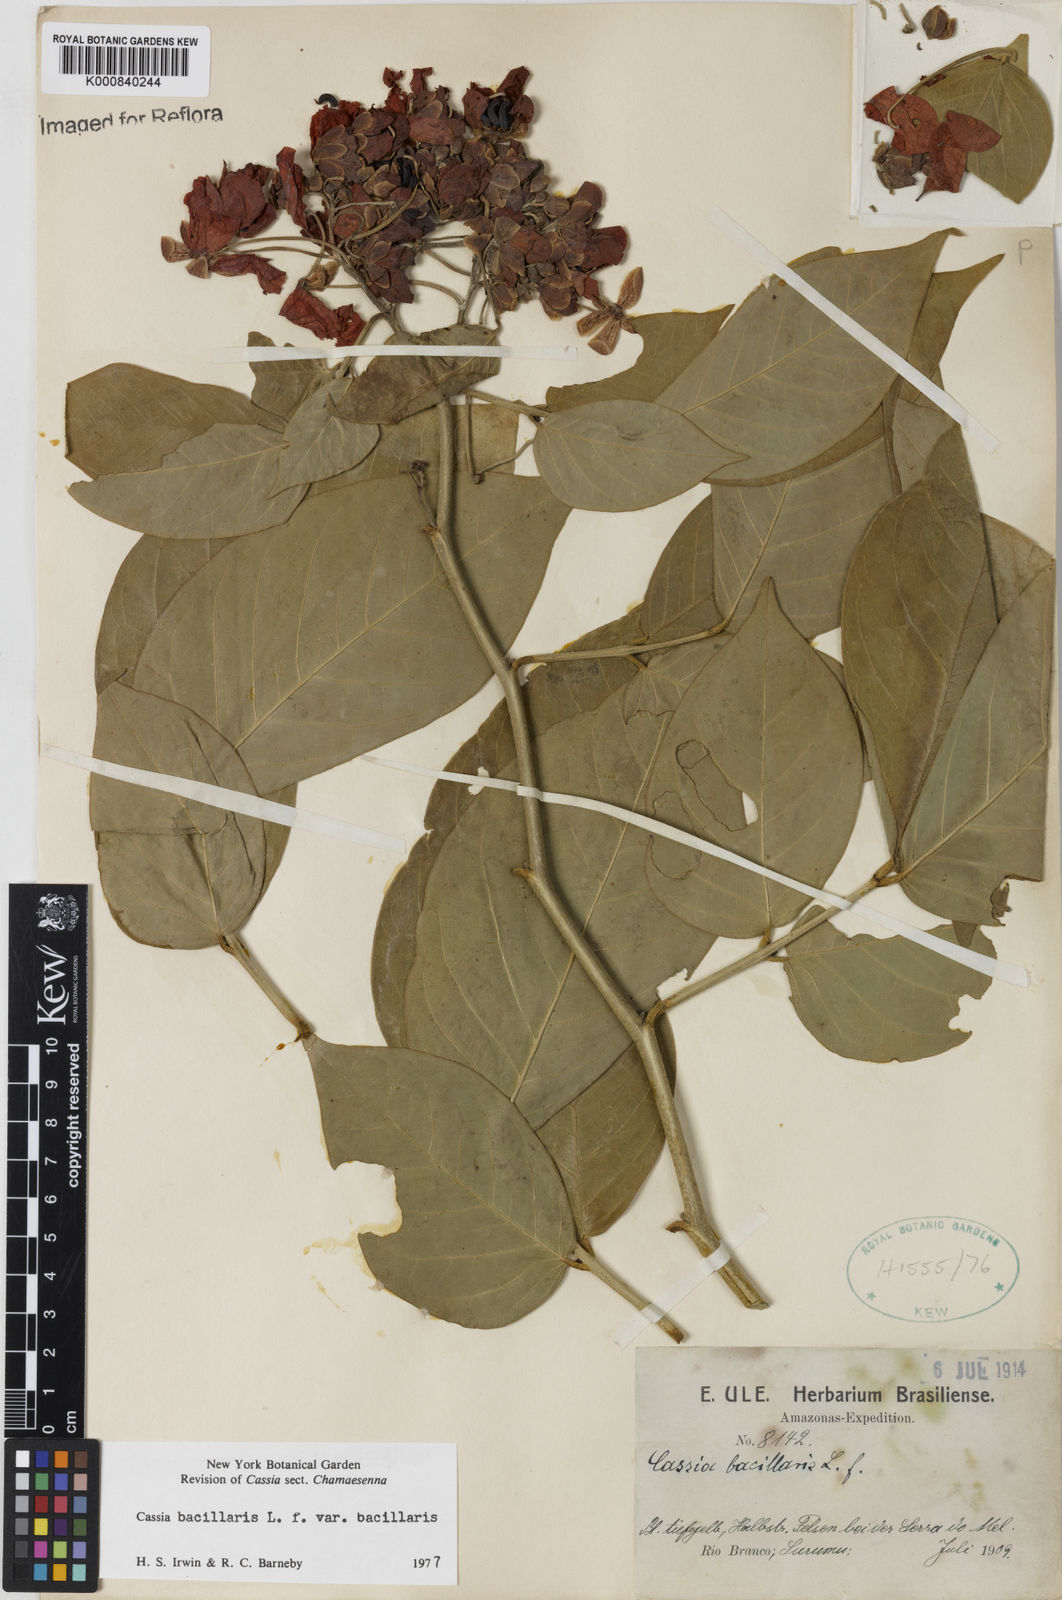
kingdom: Plantae
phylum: Tracheophyta
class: Magnoliopsida
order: Fabales
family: Fabaceae
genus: Senna
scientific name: Senna bacillaris
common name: West indian showertree
